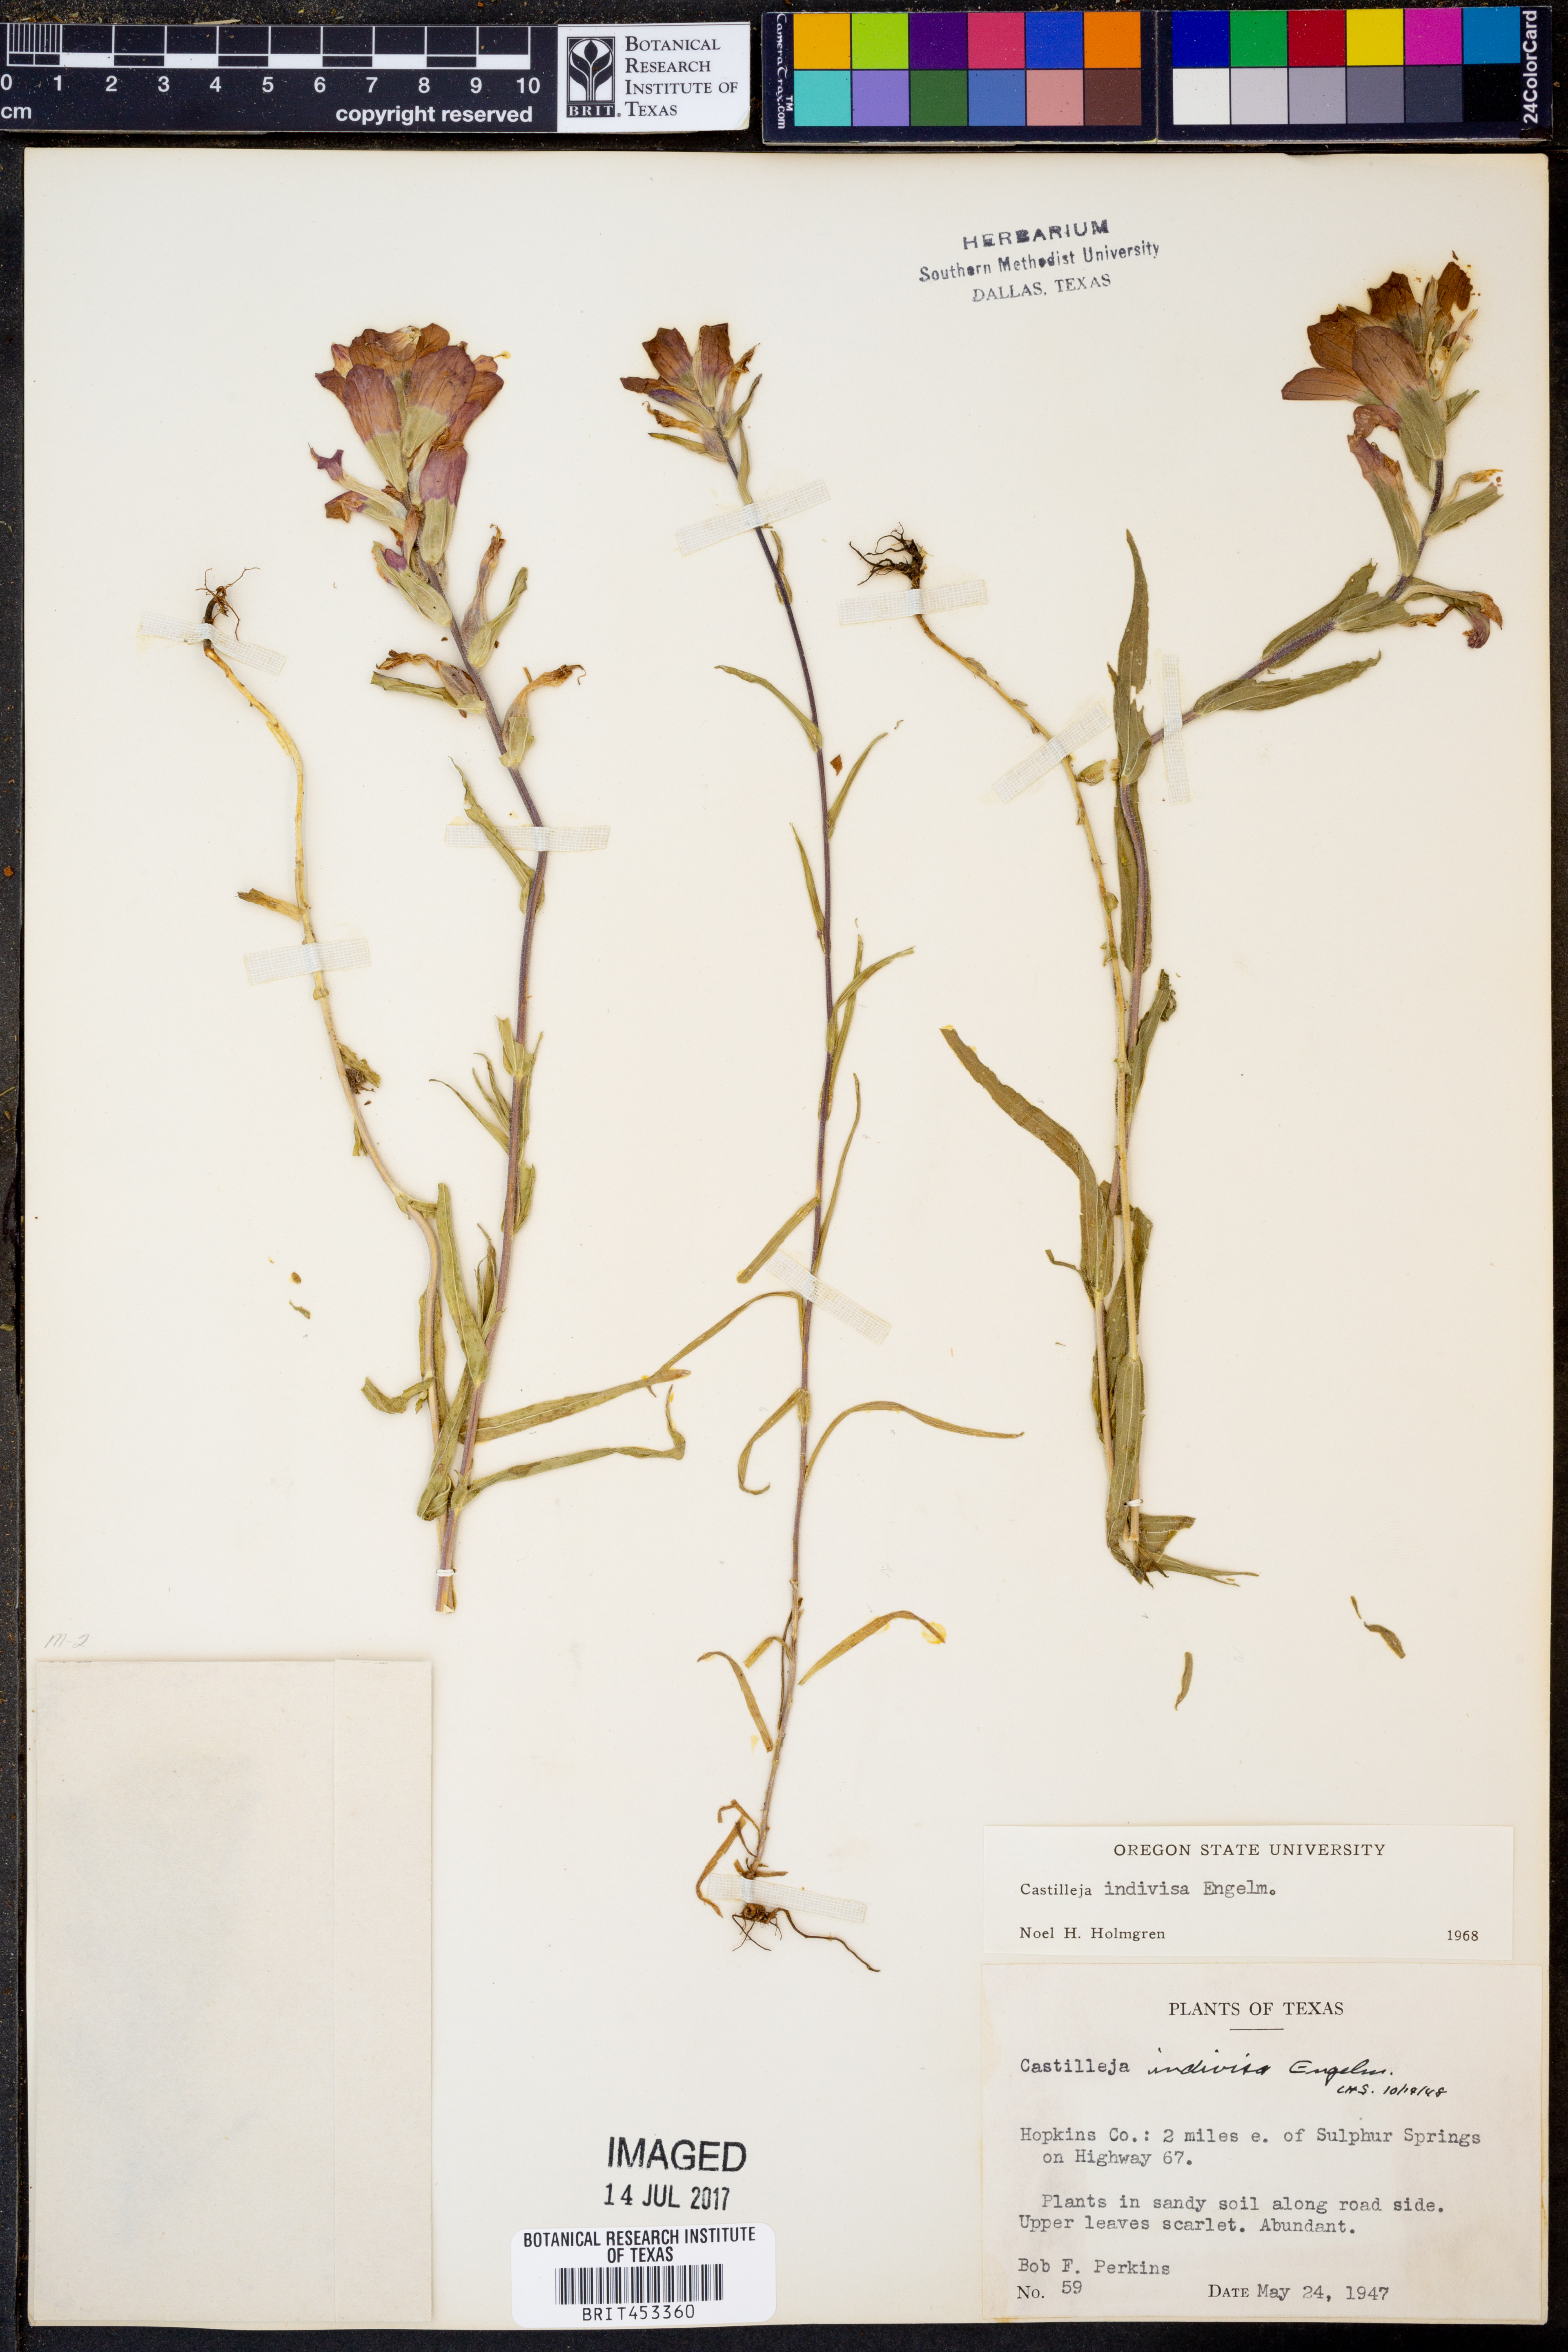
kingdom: Plantae
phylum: Tracheophyta
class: Magnoliopsida
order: Lamiales
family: Orobanchaceae
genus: Castilleja
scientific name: Castilleja indivisa
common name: Texas paintbrush
